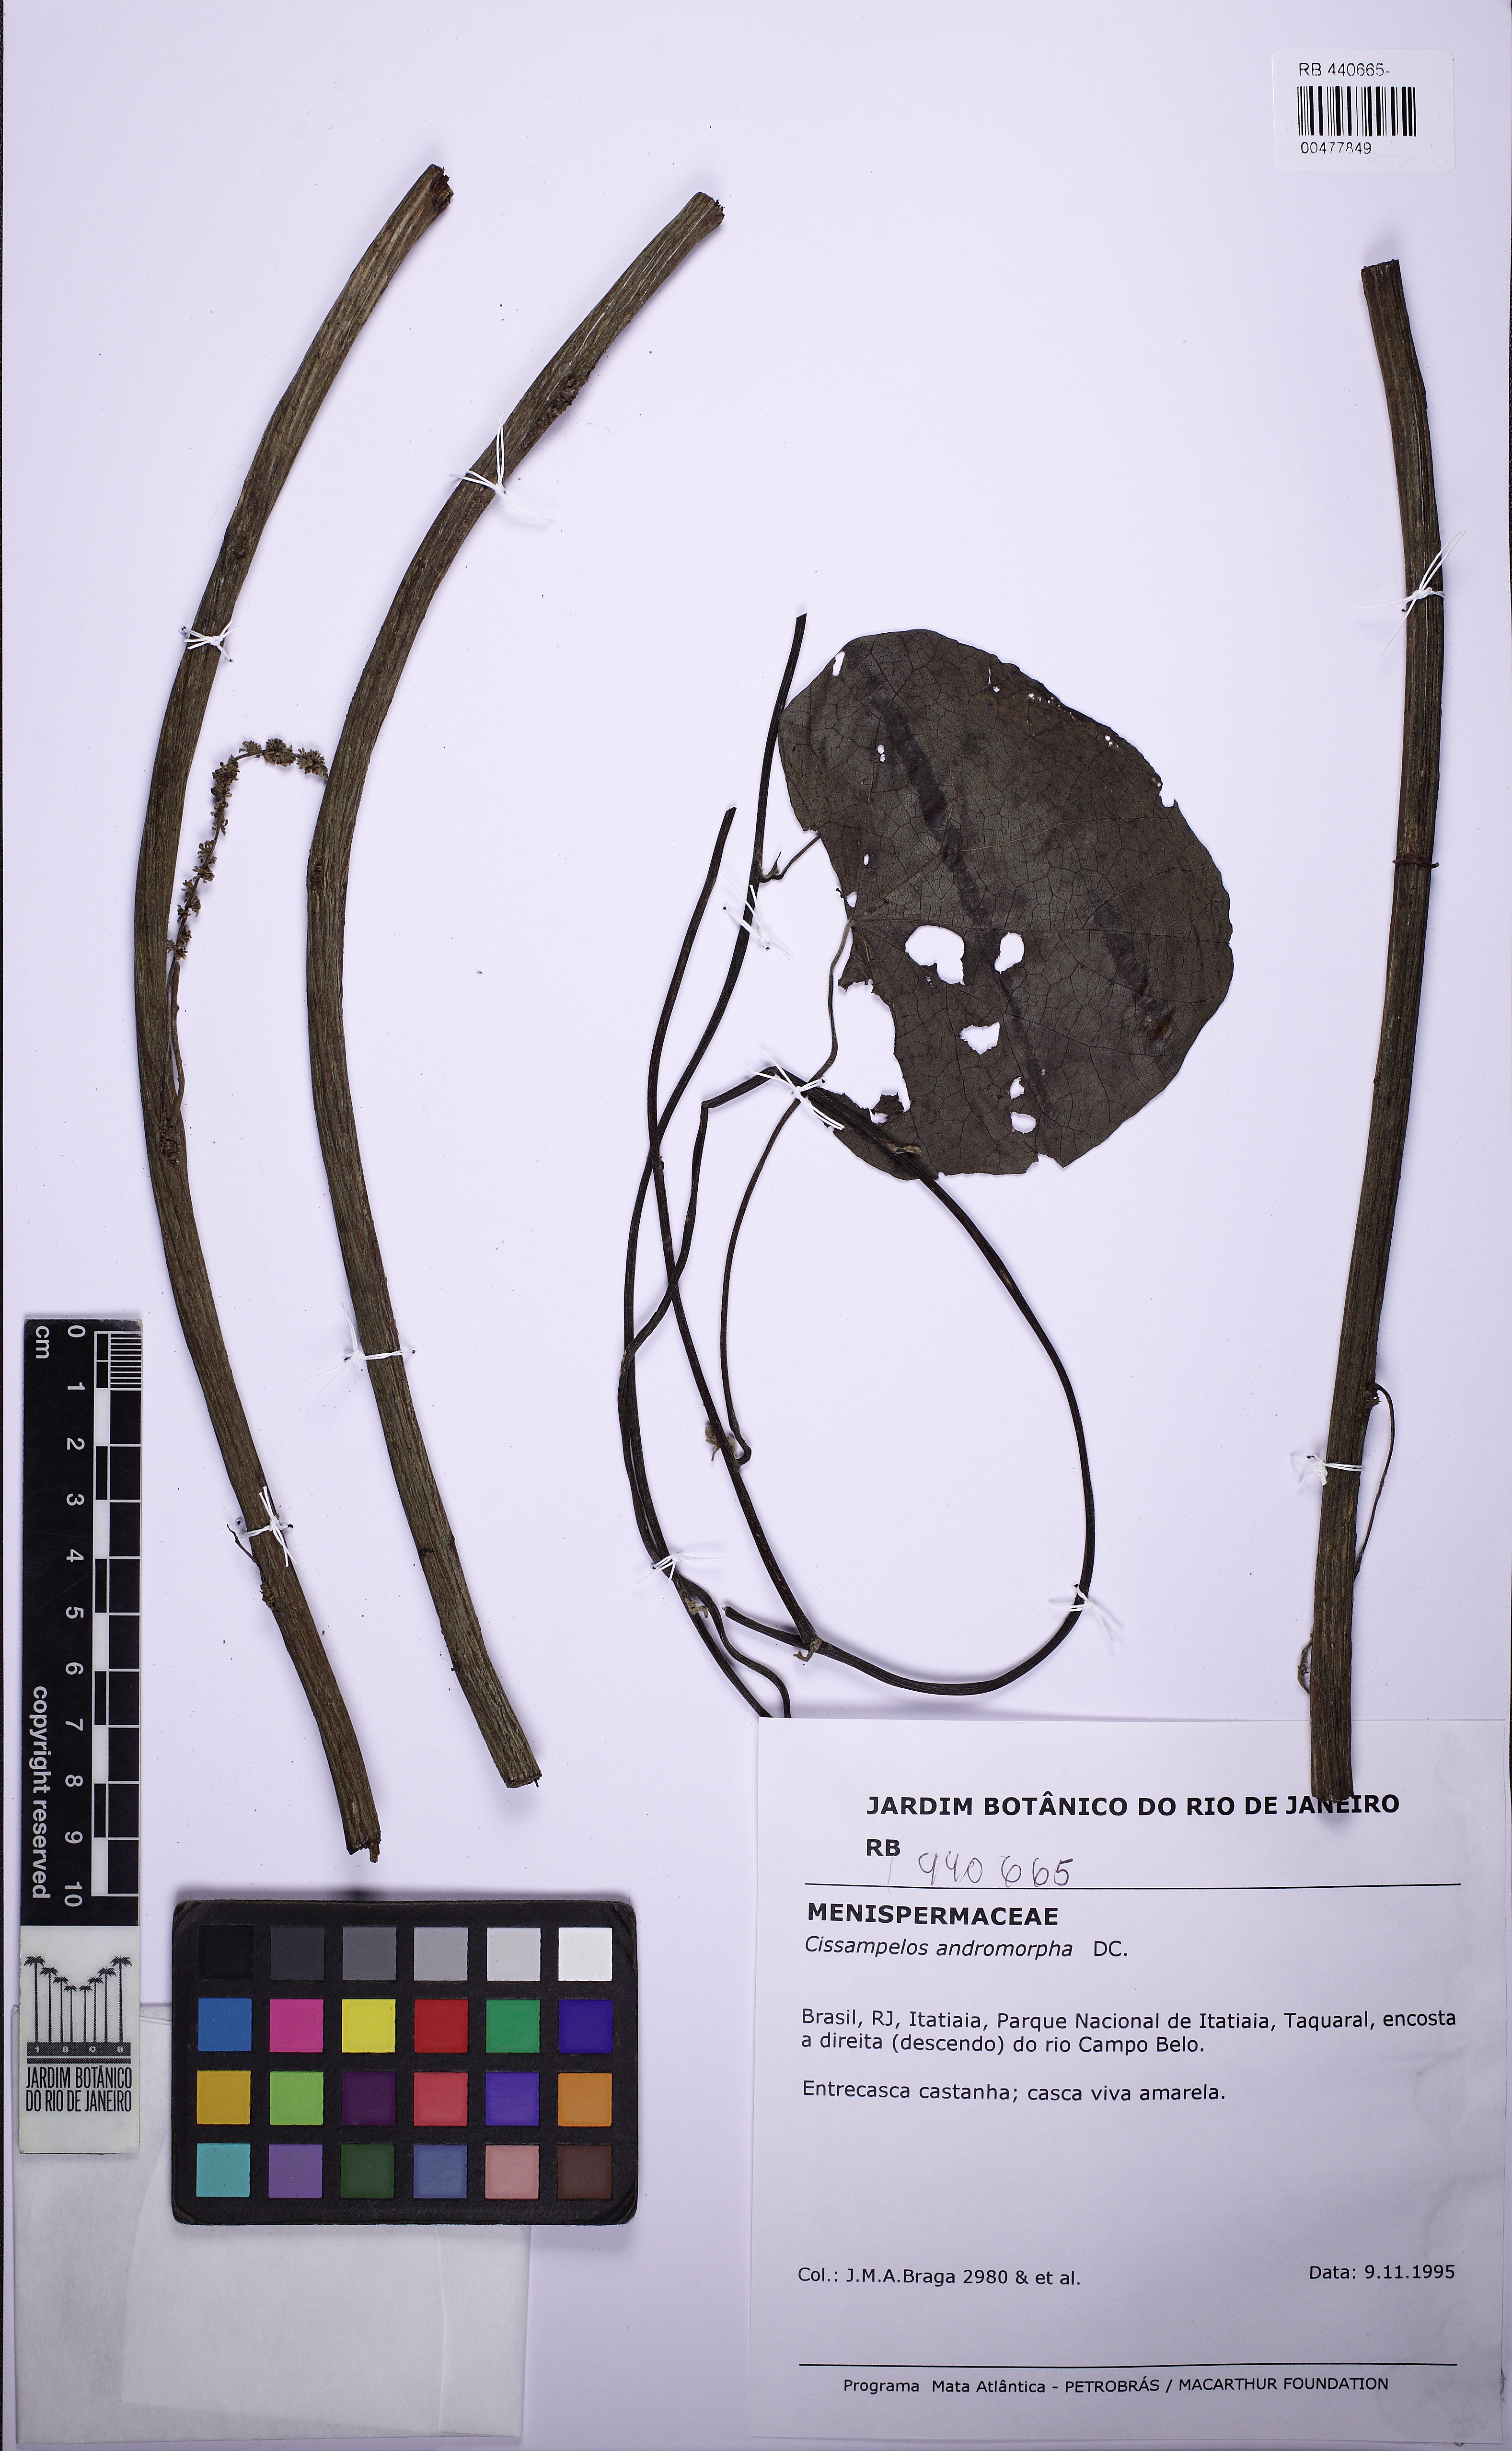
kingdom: Plantae
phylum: Tracheophyta
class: Magnoliopsida
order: Ranunculales
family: Menispermaceae
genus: Cissampelos
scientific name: Cissampelos andromorpha
